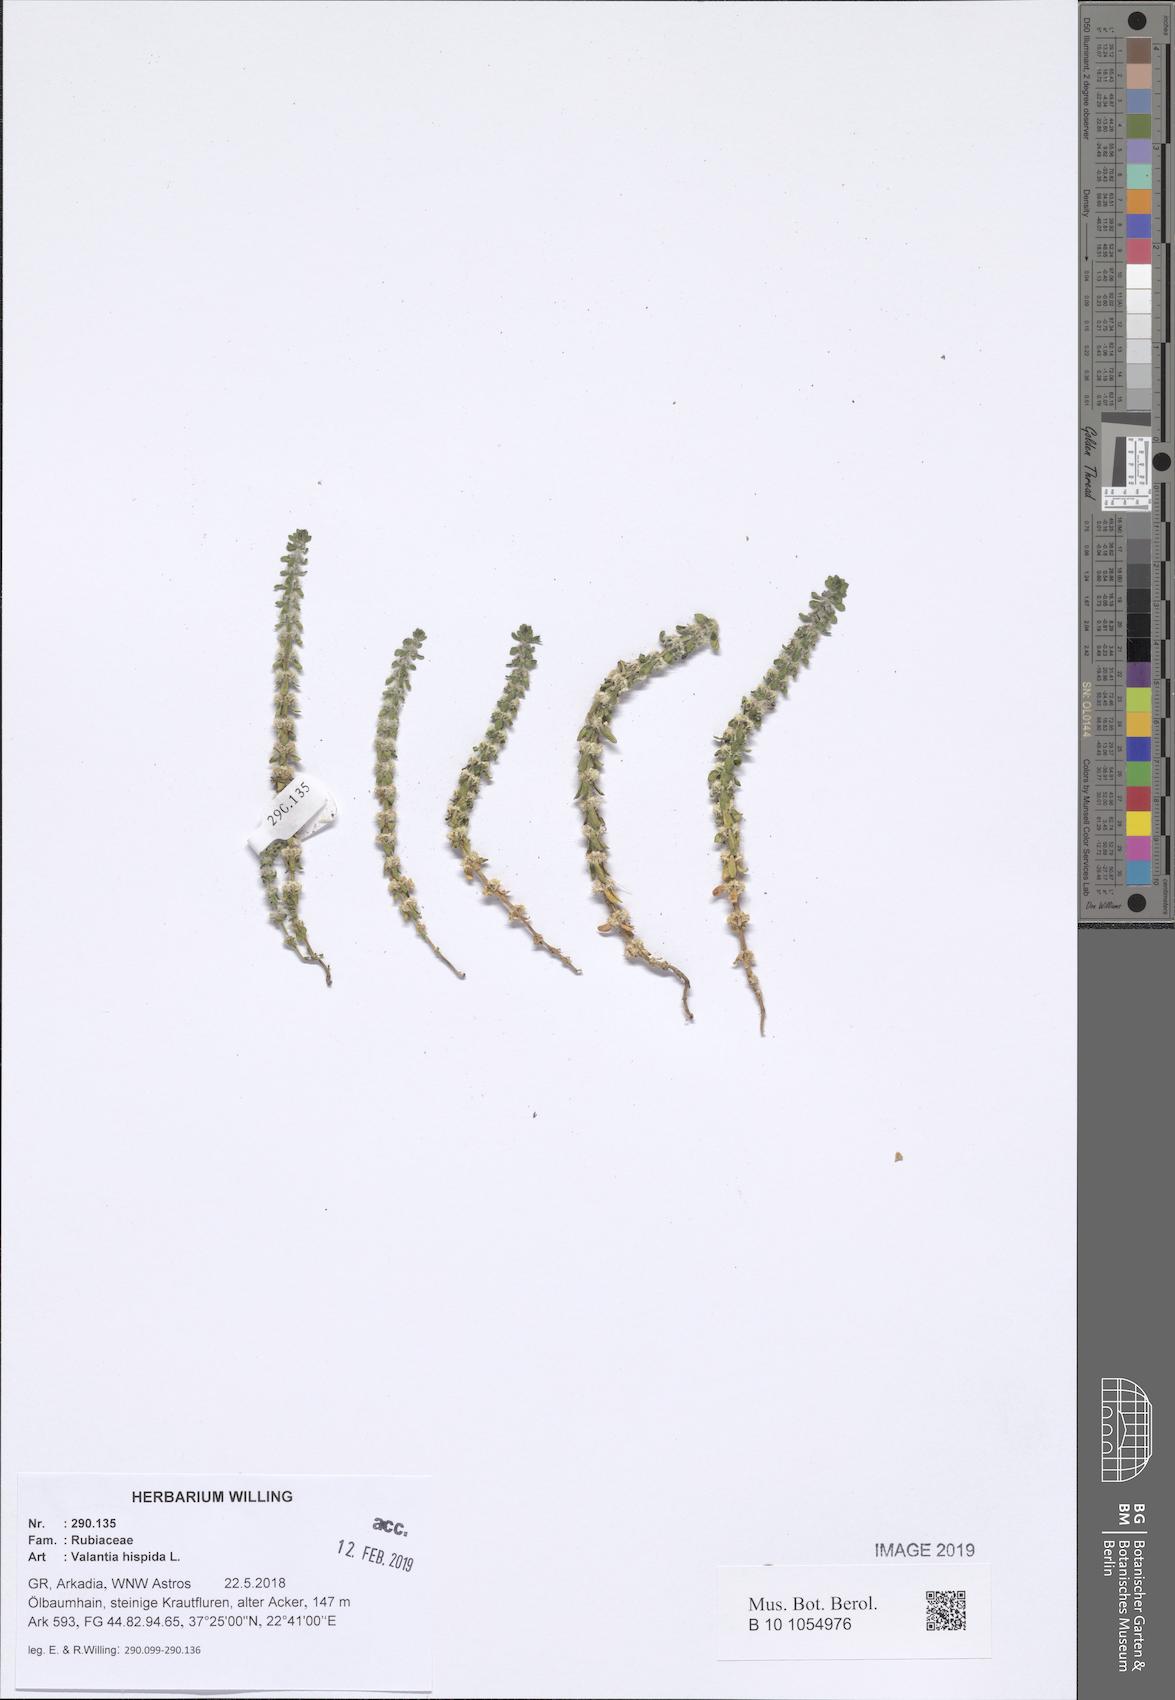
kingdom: Plantae
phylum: Tracheophyta
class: Magnoliopsida
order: Gentianales
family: Rubiaceae
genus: Valantia
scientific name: Valantia hispida
